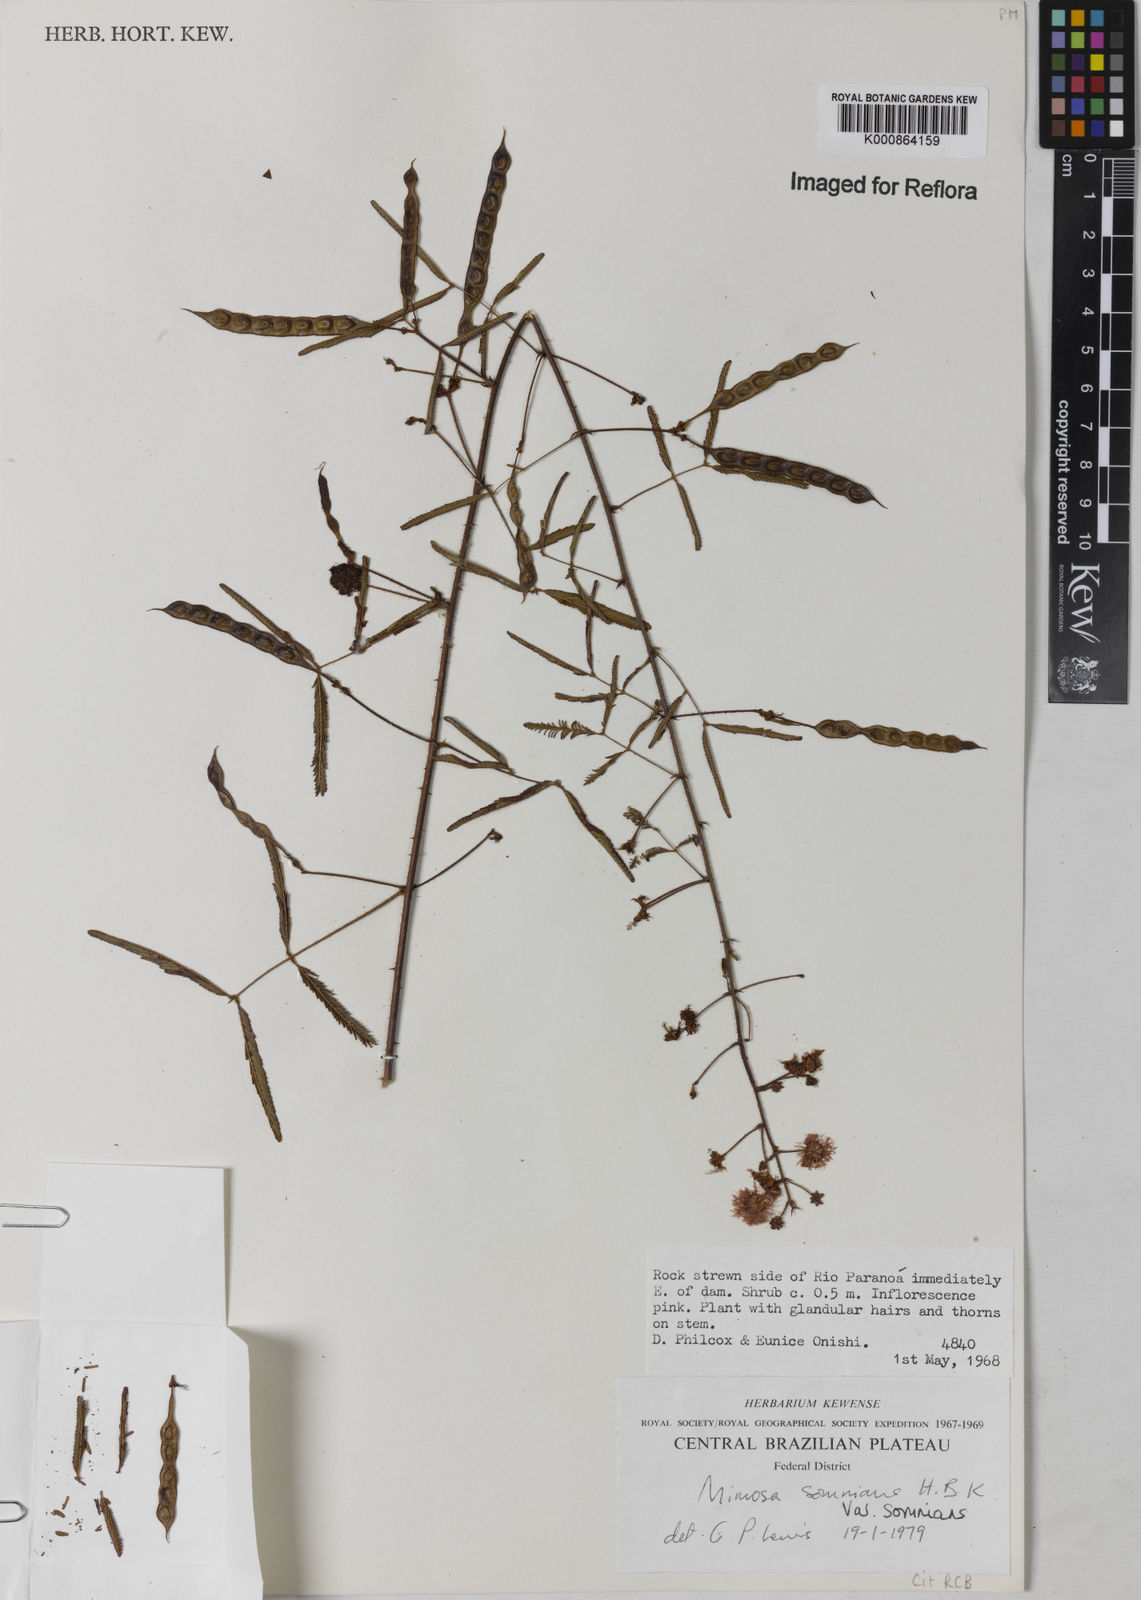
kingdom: Plantae
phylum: Tracheophyta
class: Magnoliopsida
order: Fabales
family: Fabaceae
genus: Mimosa
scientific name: Mimosa somnians
